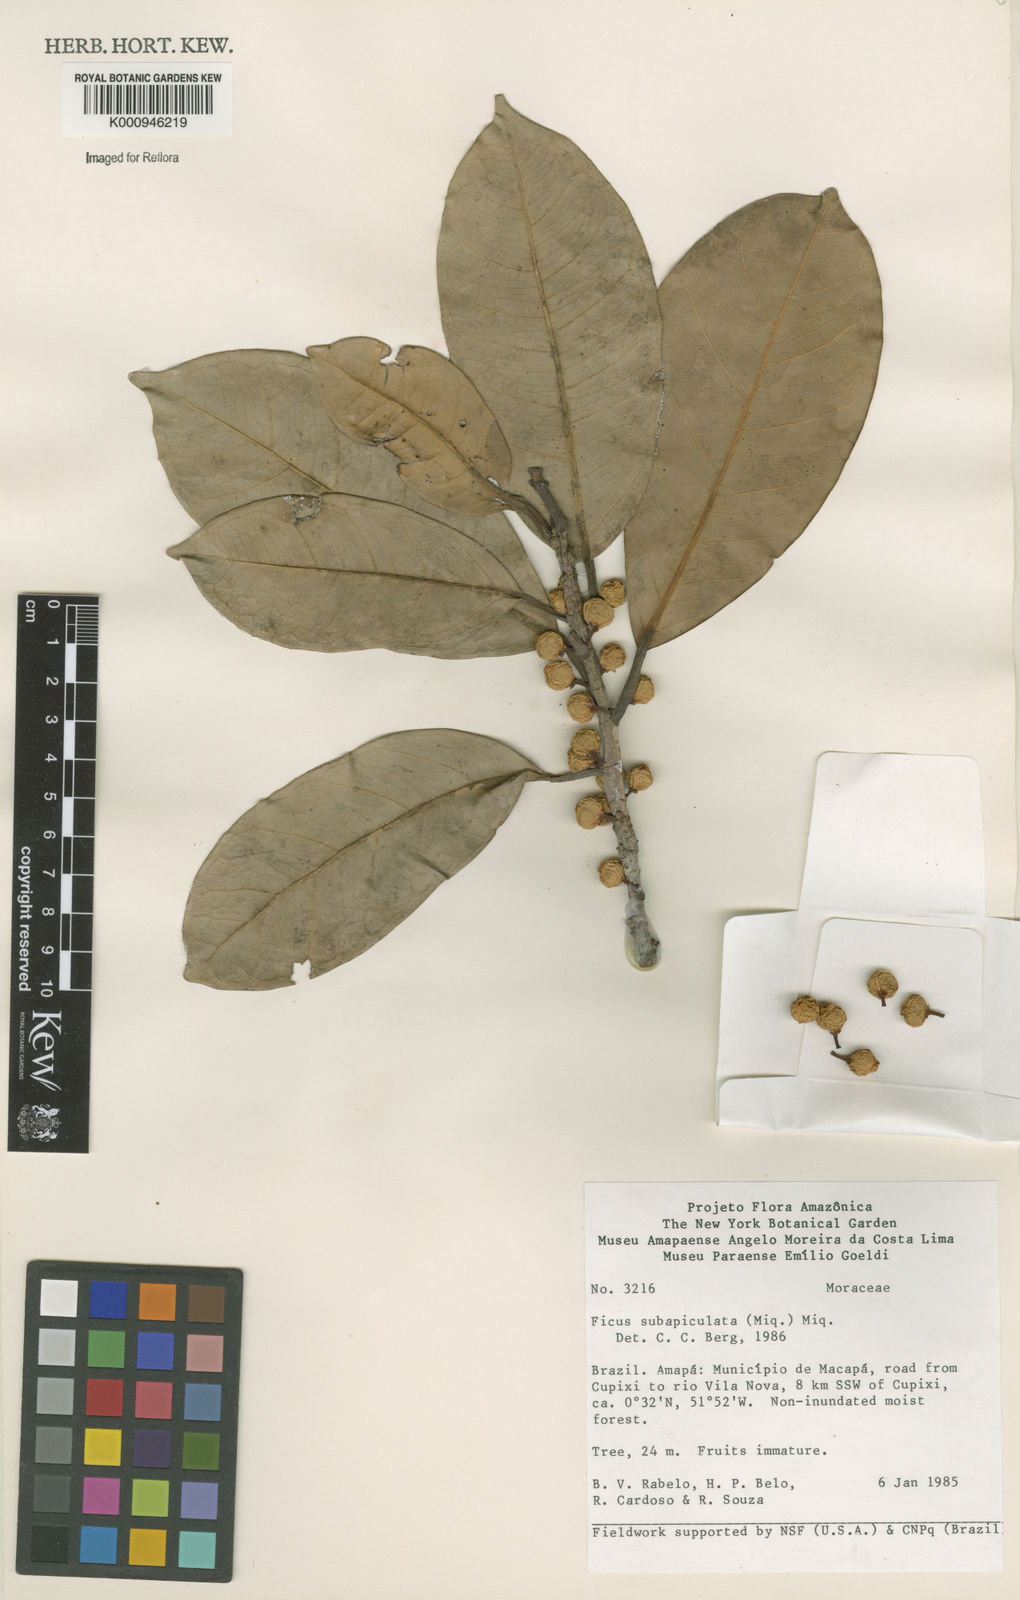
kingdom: Plantae
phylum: Tracheophyta
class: Magnoliopsida
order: Rosales
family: Moraceae
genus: Ficus
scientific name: Ficus americana
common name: Jamaican cherry fig
